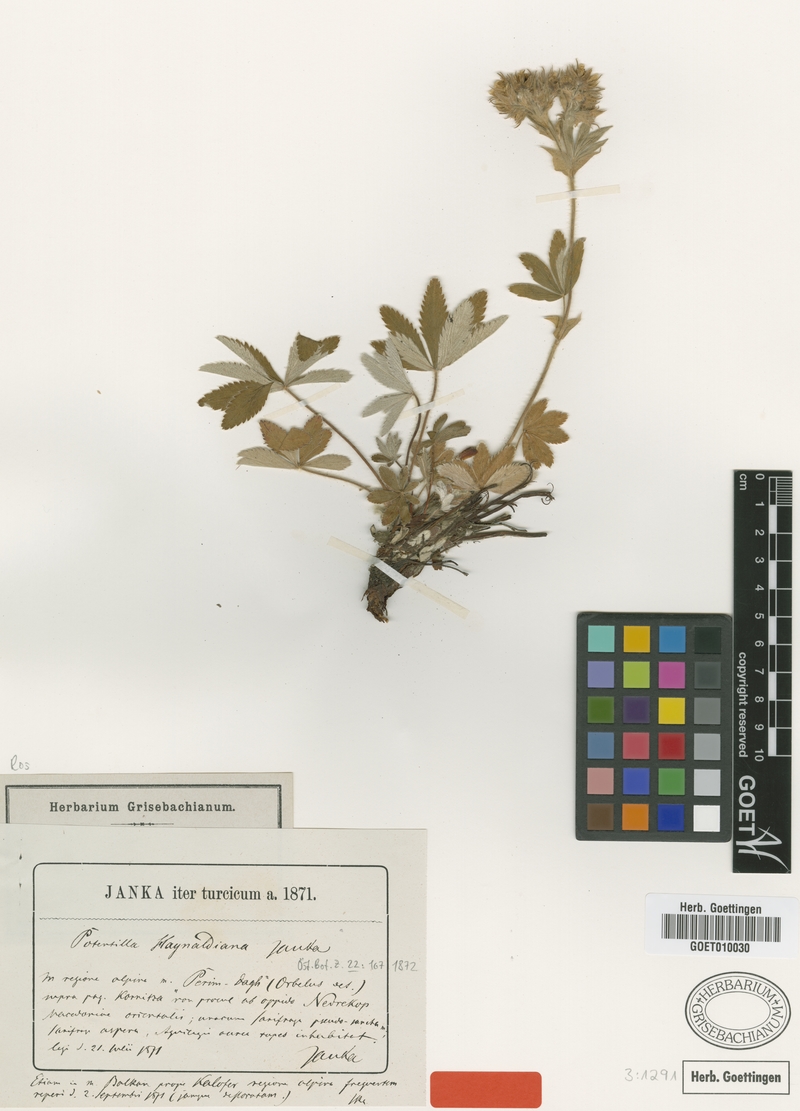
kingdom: Plantae
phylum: Tracheophyta
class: Magnoliopsida
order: Rosales
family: Rosaceae
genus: Potentilla
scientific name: Potentilla haynaldiana
